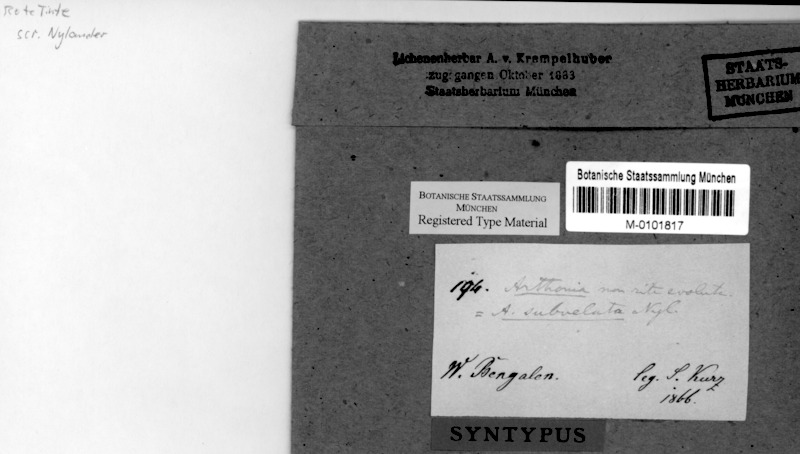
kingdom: Fungi
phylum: Ascomycota
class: Arthoniomycetes
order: Arthoniales
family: Arthoniaceae
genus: Arthonia
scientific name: Arthonia
